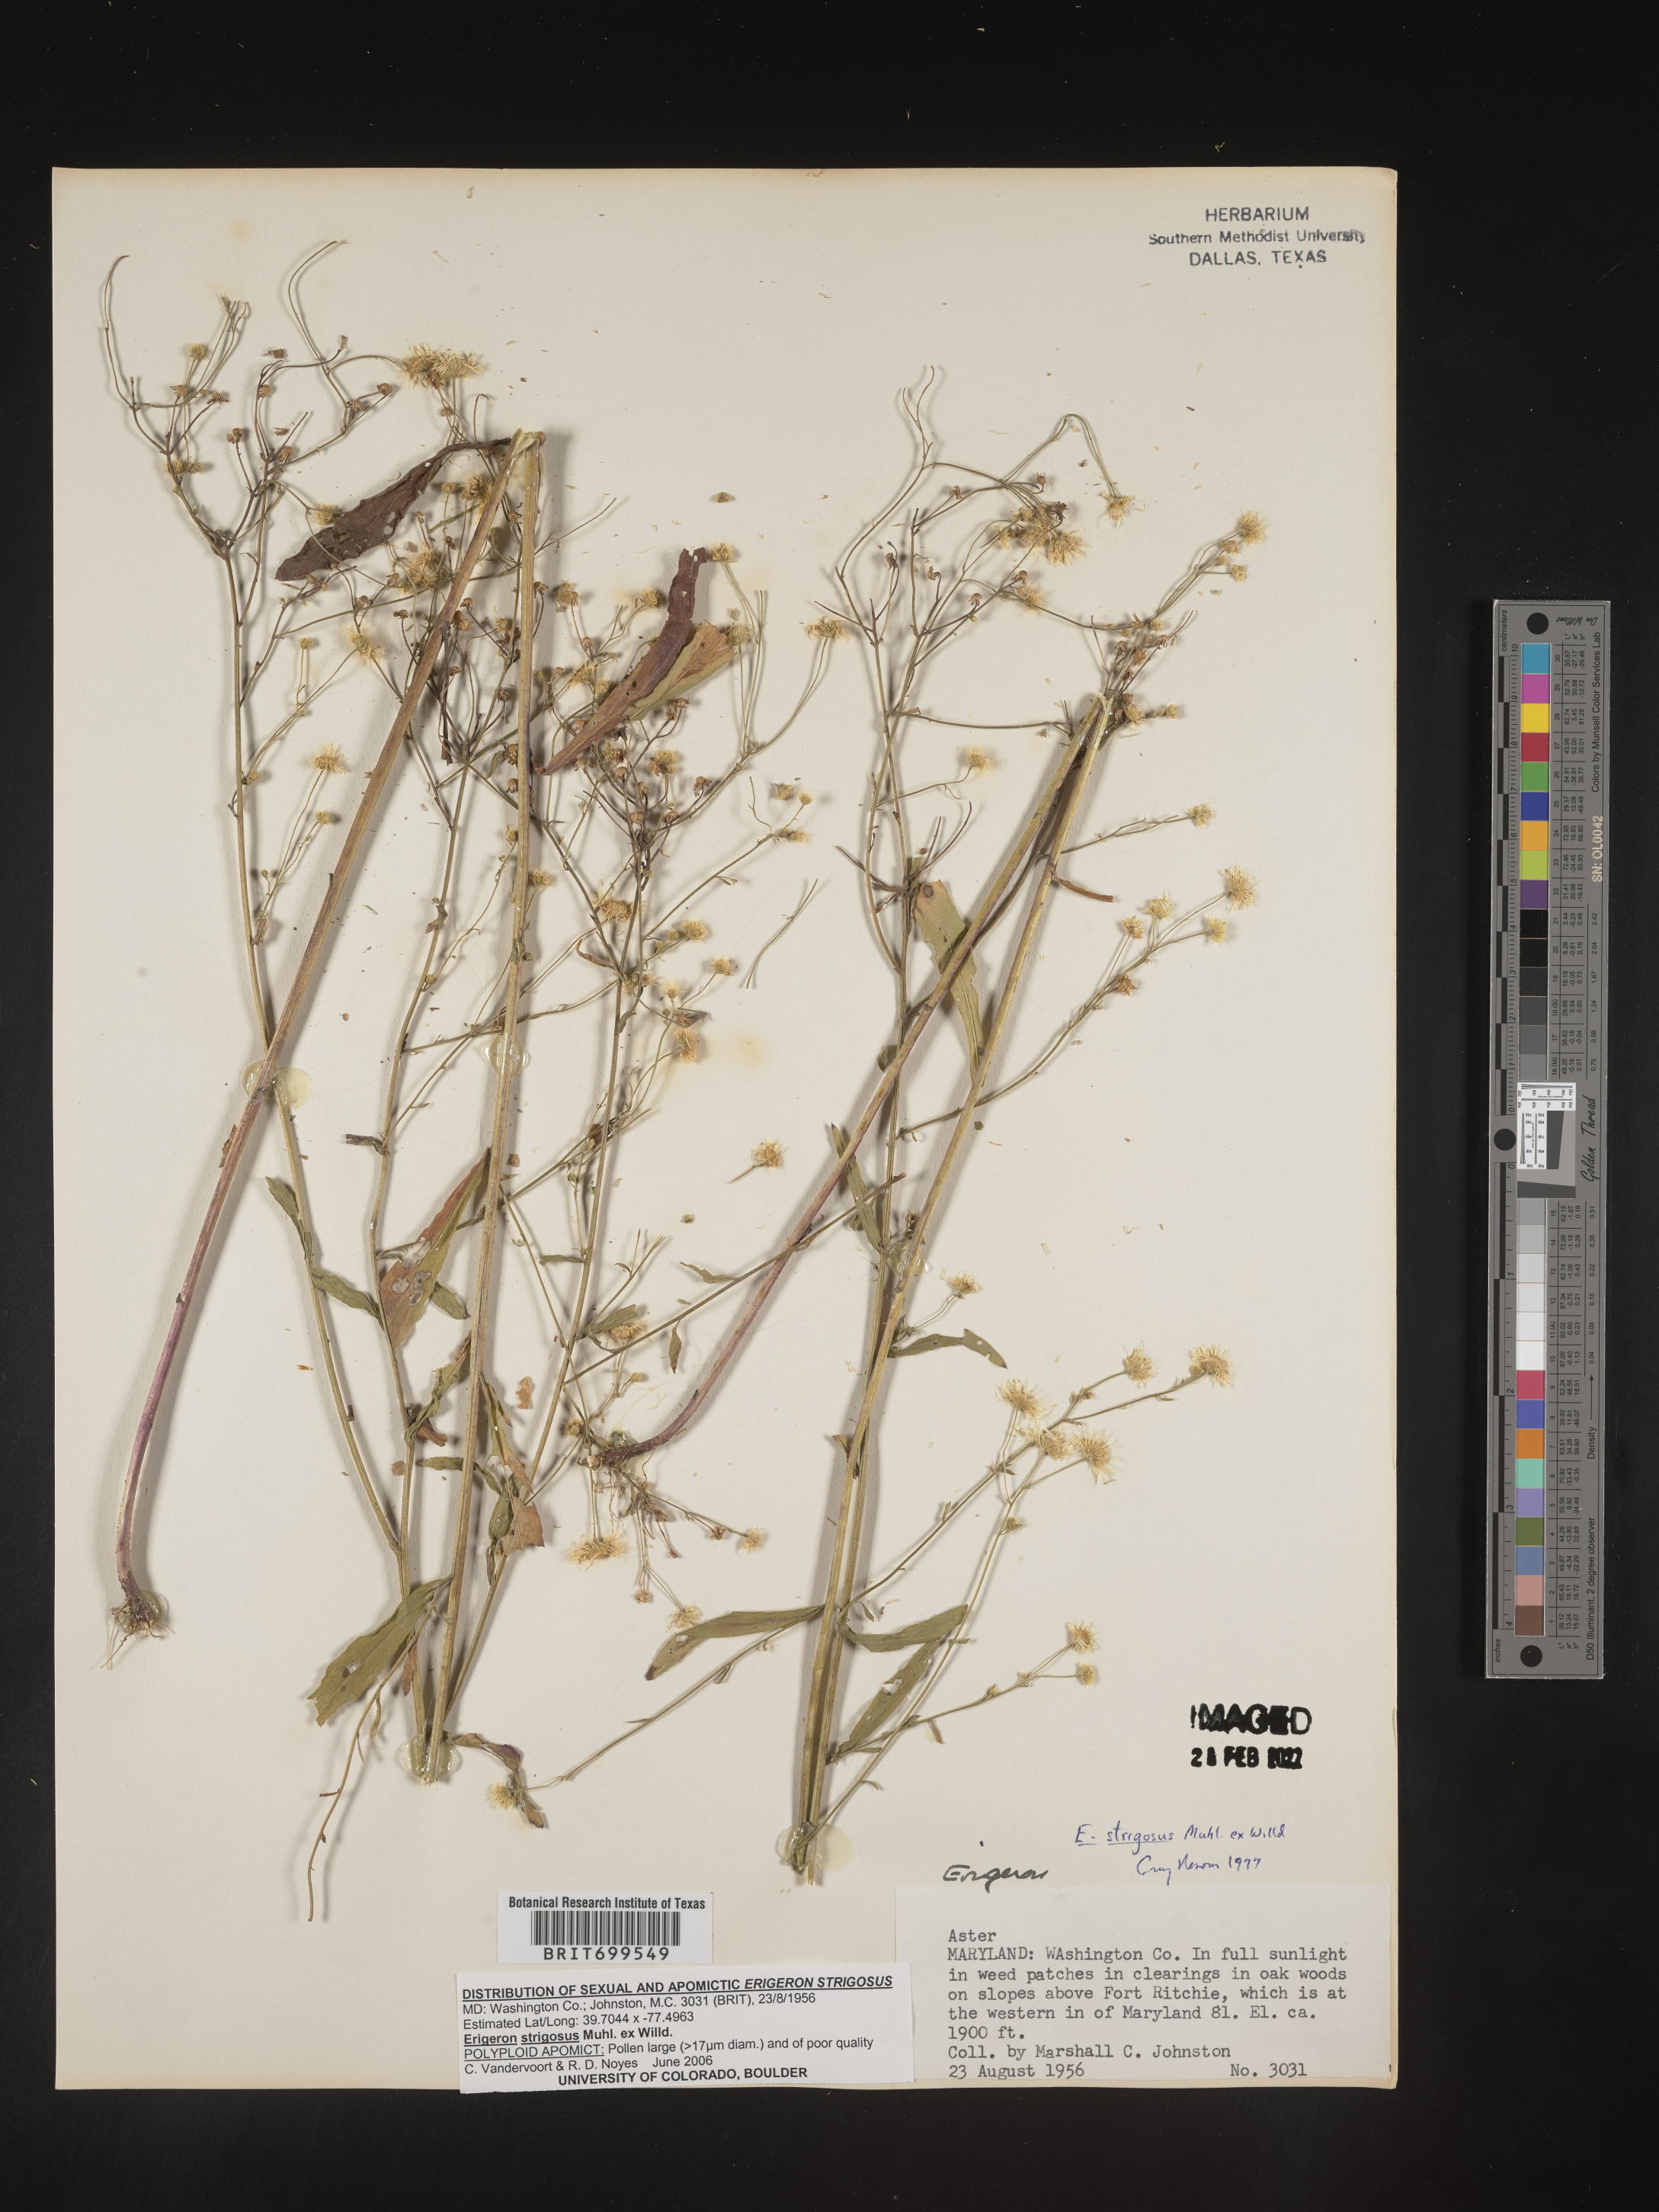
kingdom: Plantae
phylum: Tracheophyta
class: Magnoliopsida
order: Asterales
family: Asteraceae
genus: Erigeron
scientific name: Erigeron strigosus
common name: Common eastern fleabane
